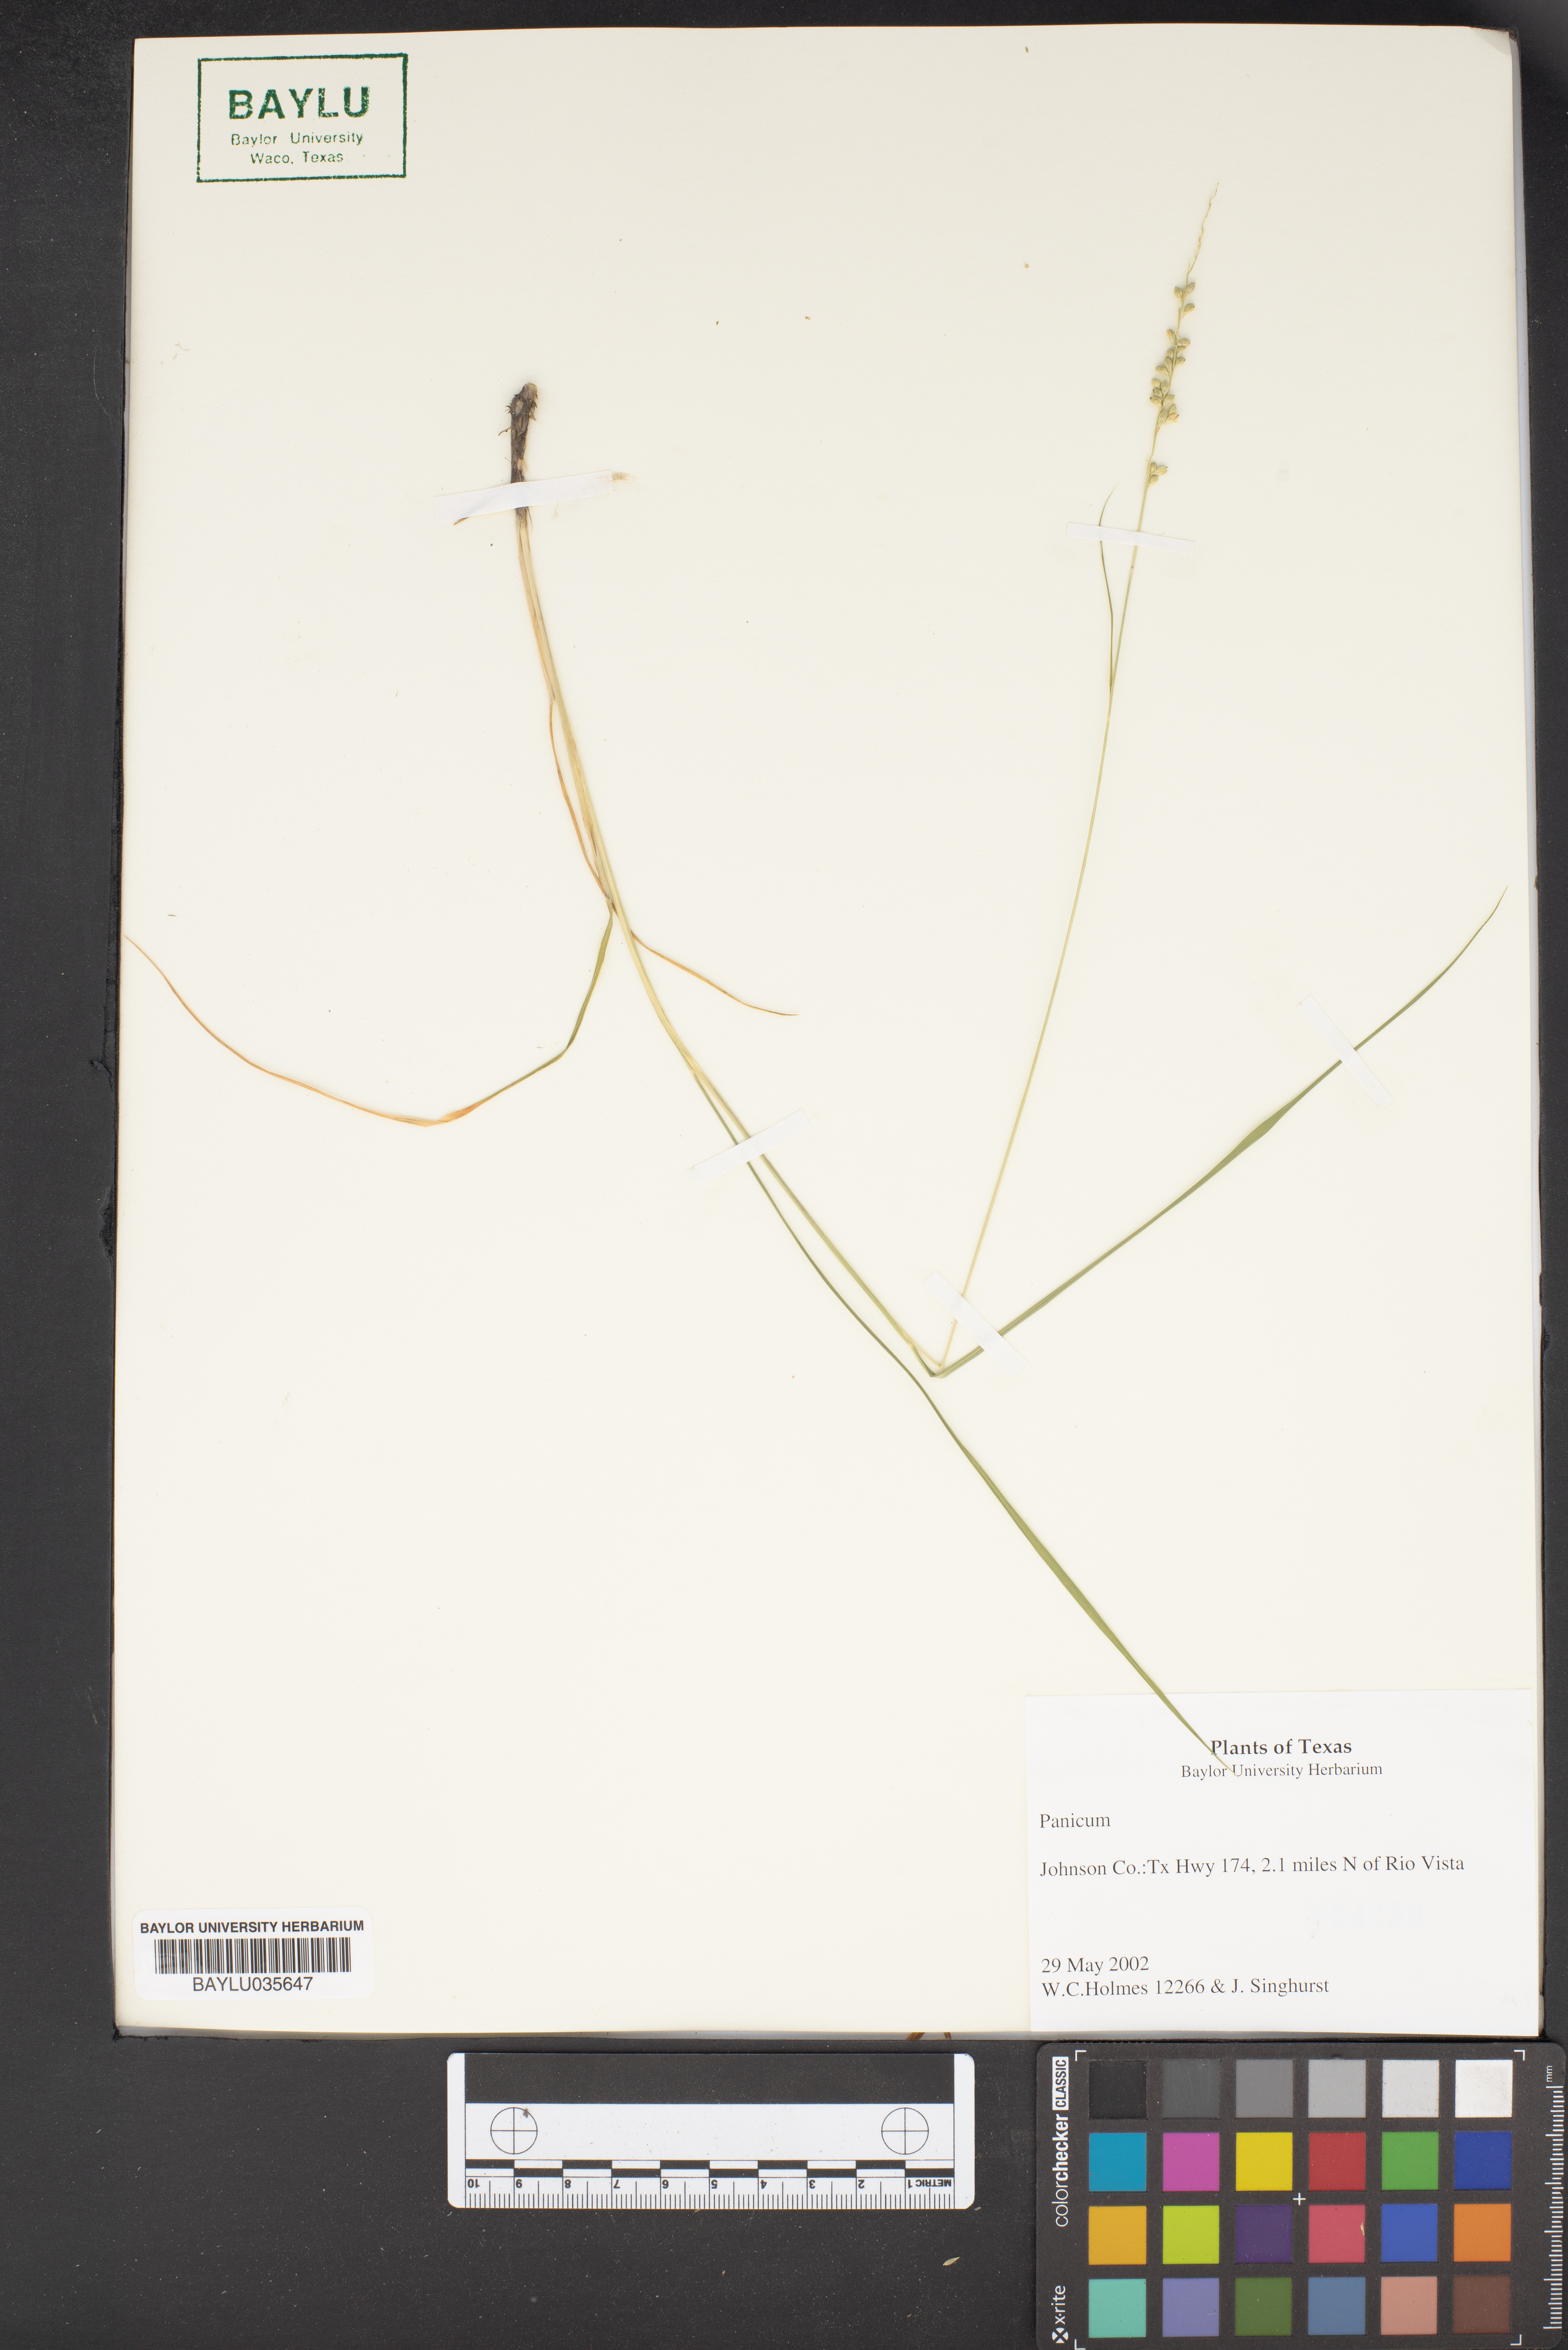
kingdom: Plantae
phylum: Tracheophyta
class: Liliopsida
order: Poales
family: Poaceae
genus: Panicum
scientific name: Panicum
